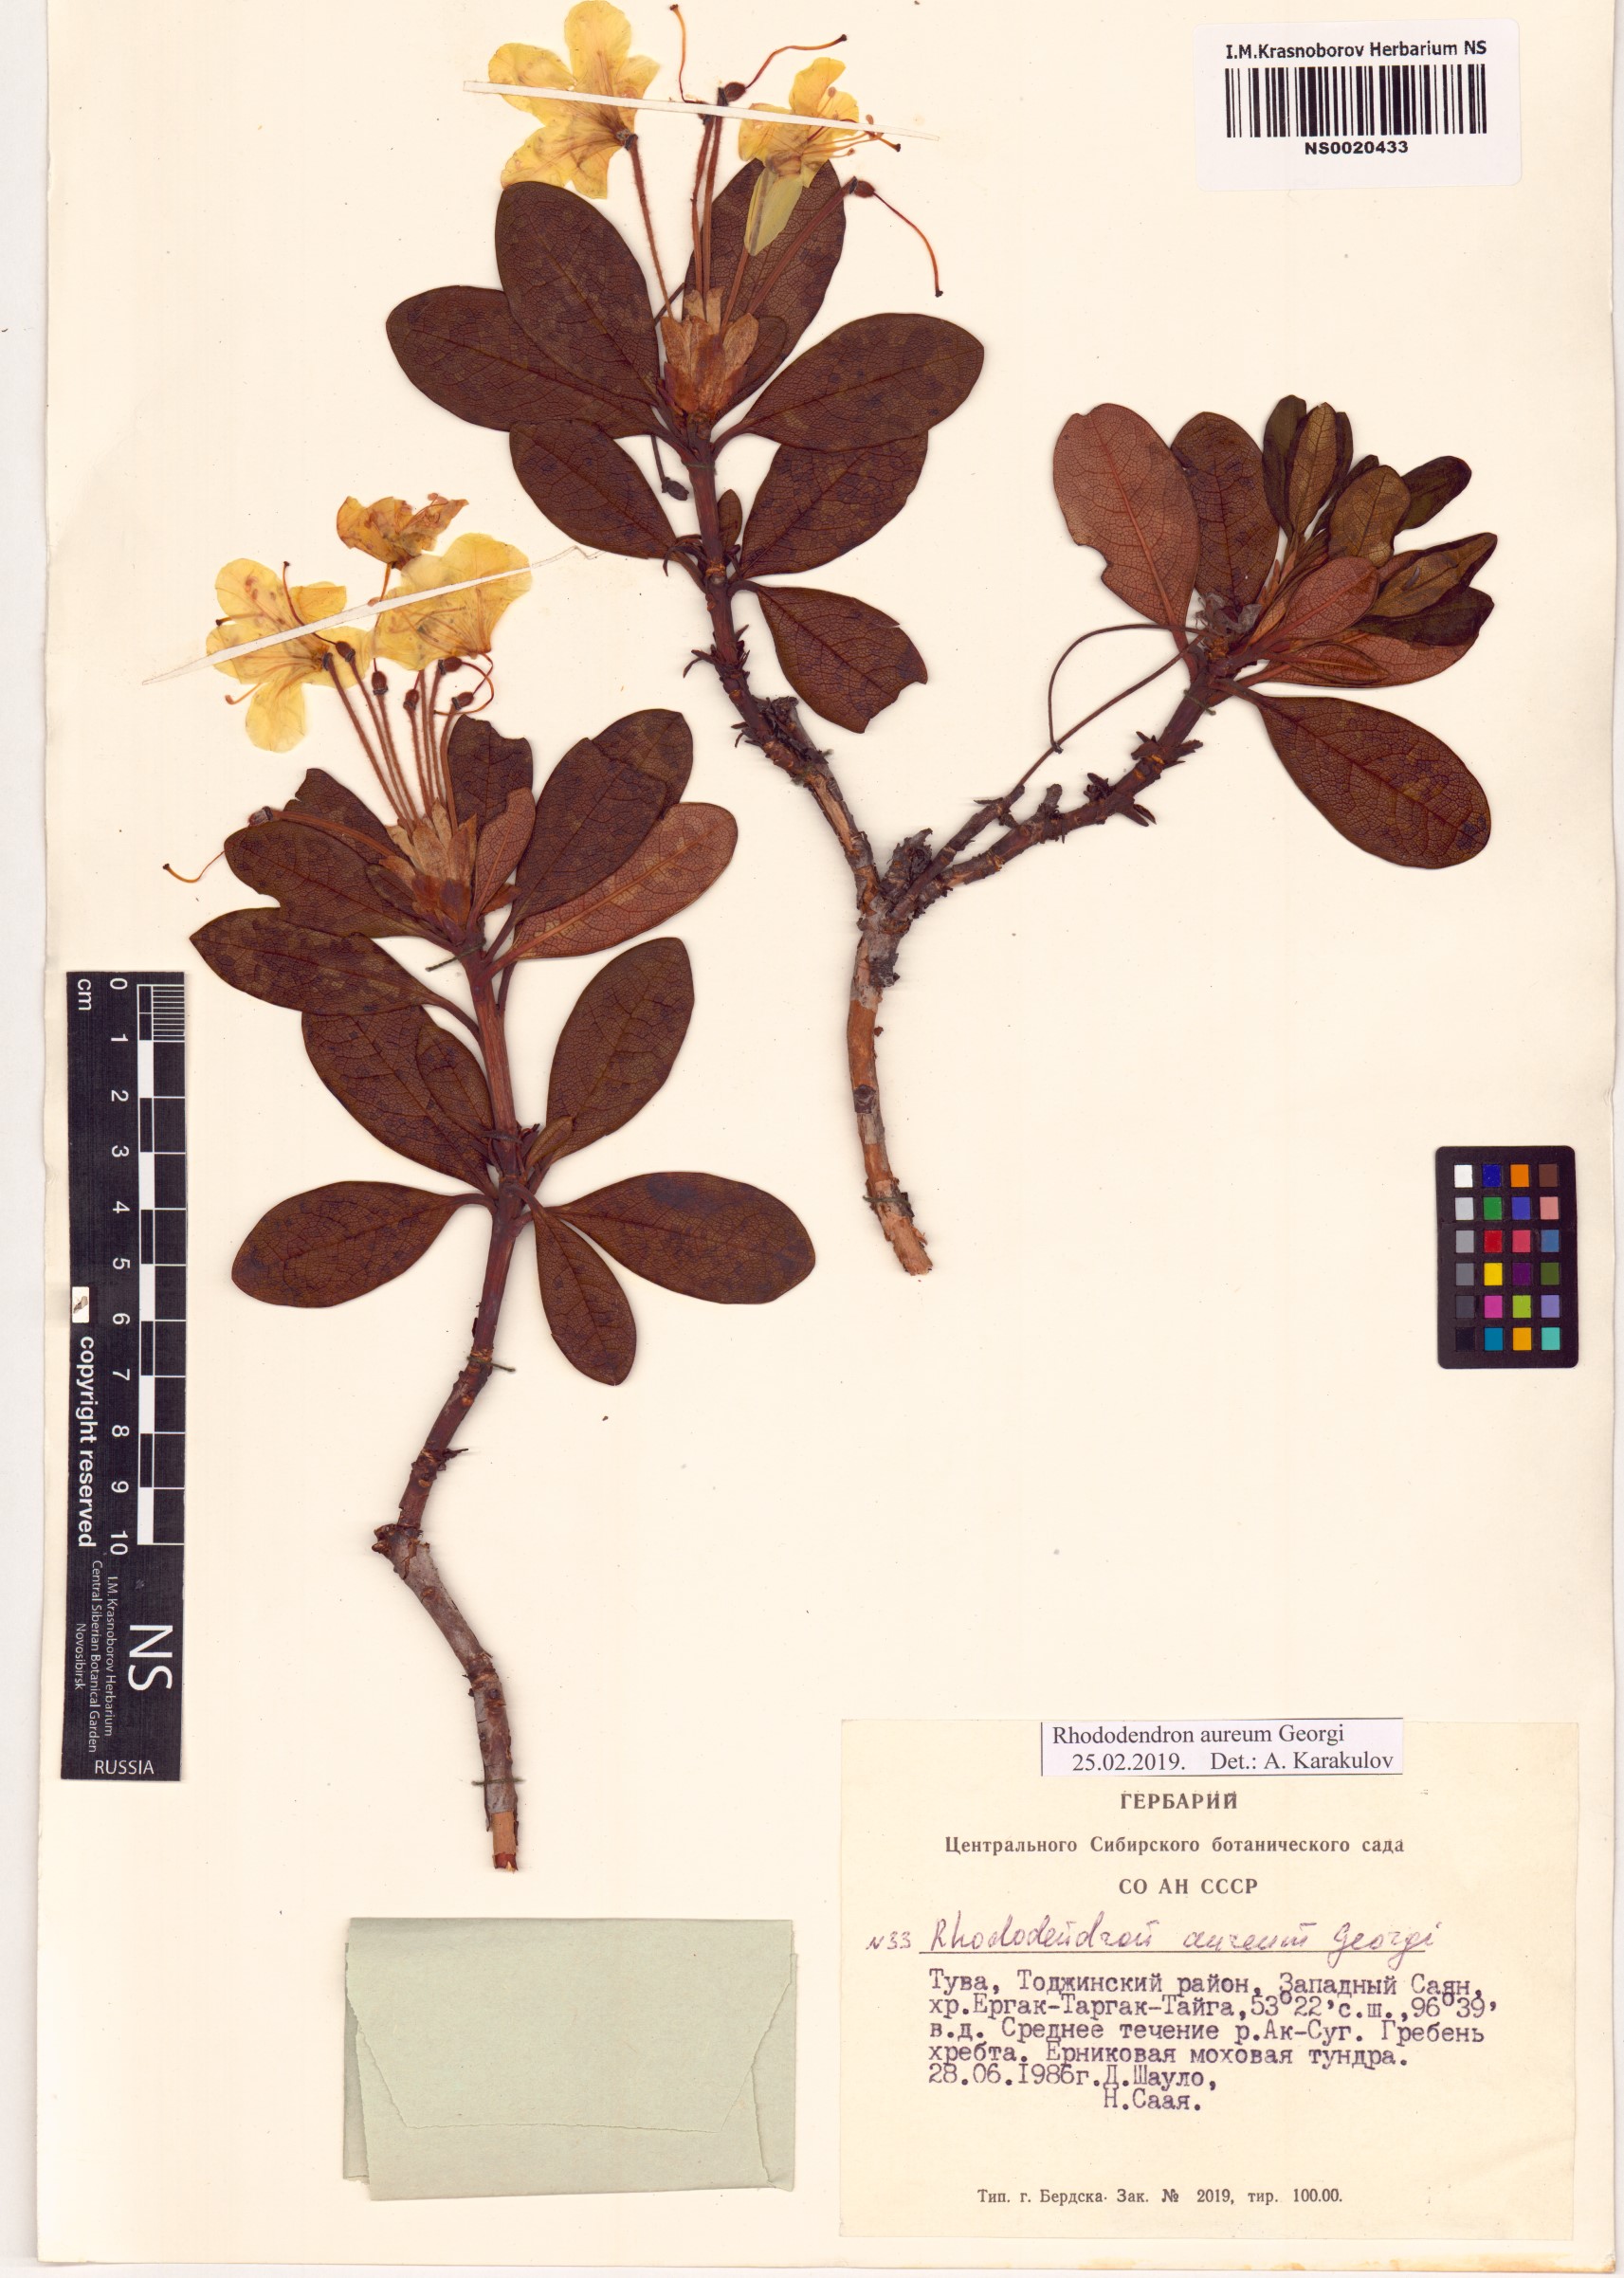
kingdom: Plantae
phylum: Tracheophyta
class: Magnoliopsida
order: Ericales
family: Ericaceae
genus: Rhododendron
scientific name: Rhododendron aureum
